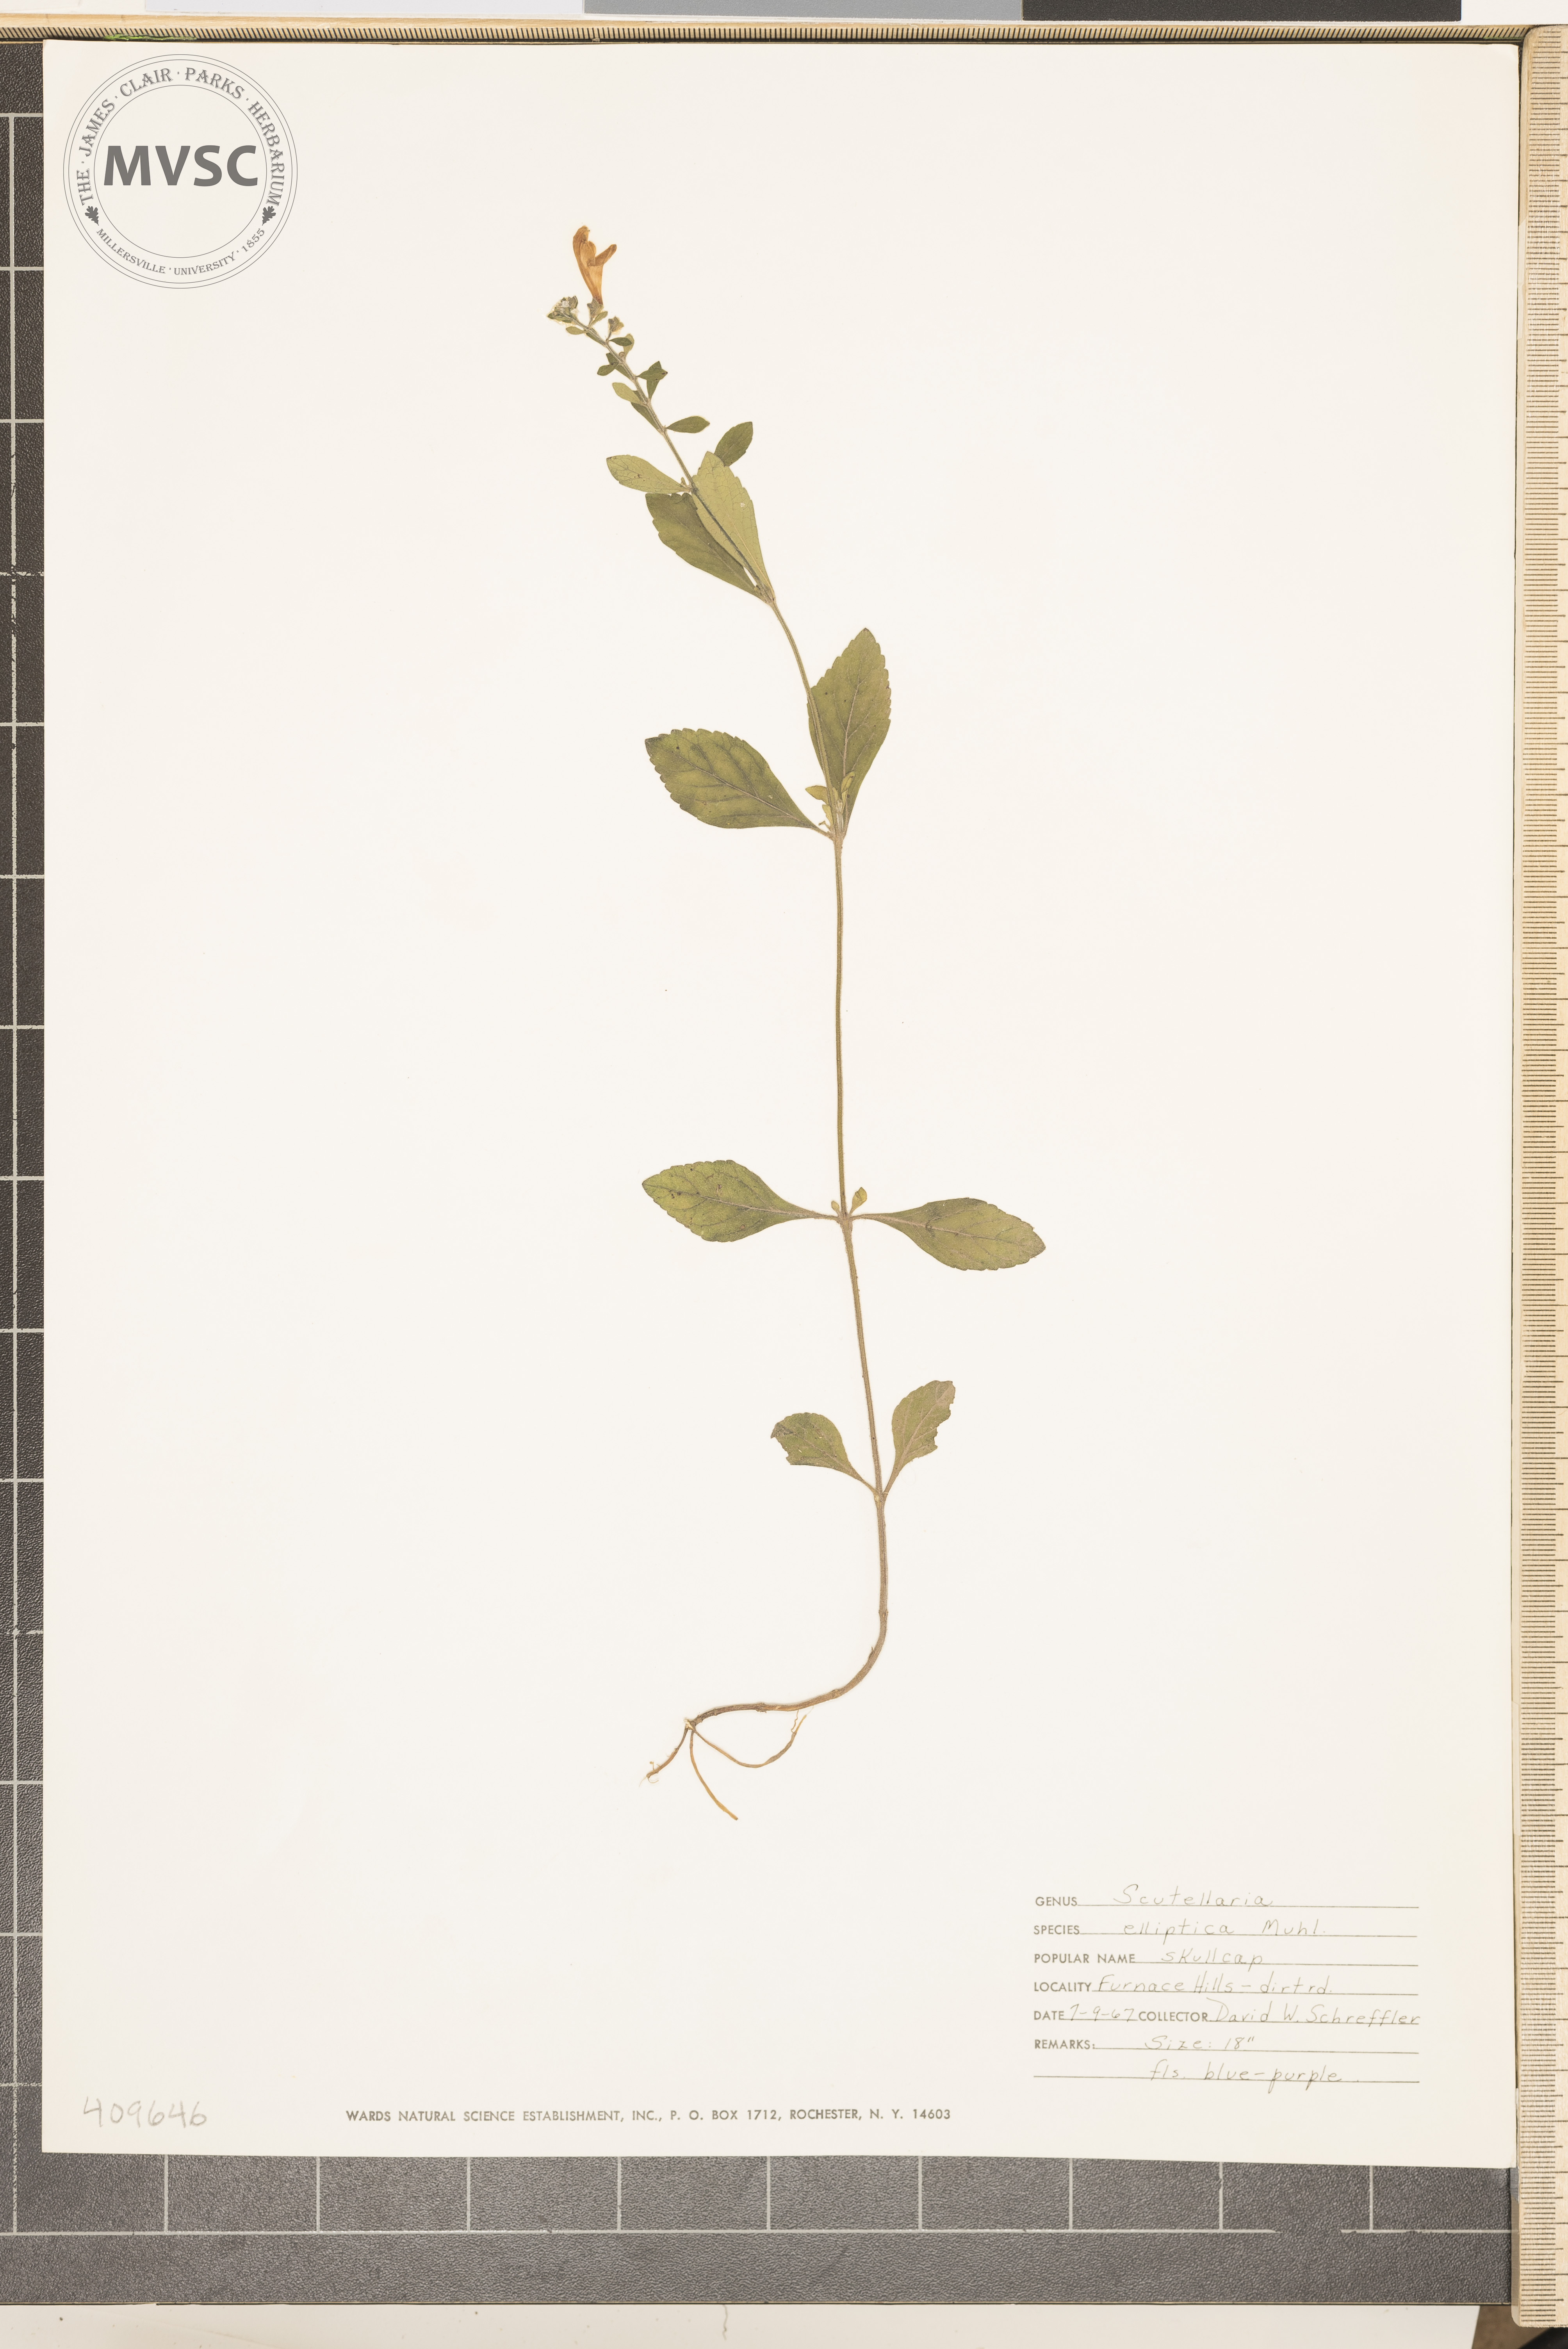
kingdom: Plantae
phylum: Tracheophyta
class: Magnoliopsida
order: Lamiales
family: Lamiaceae
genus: Scutellaria
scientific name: Scutellaria elliptica
